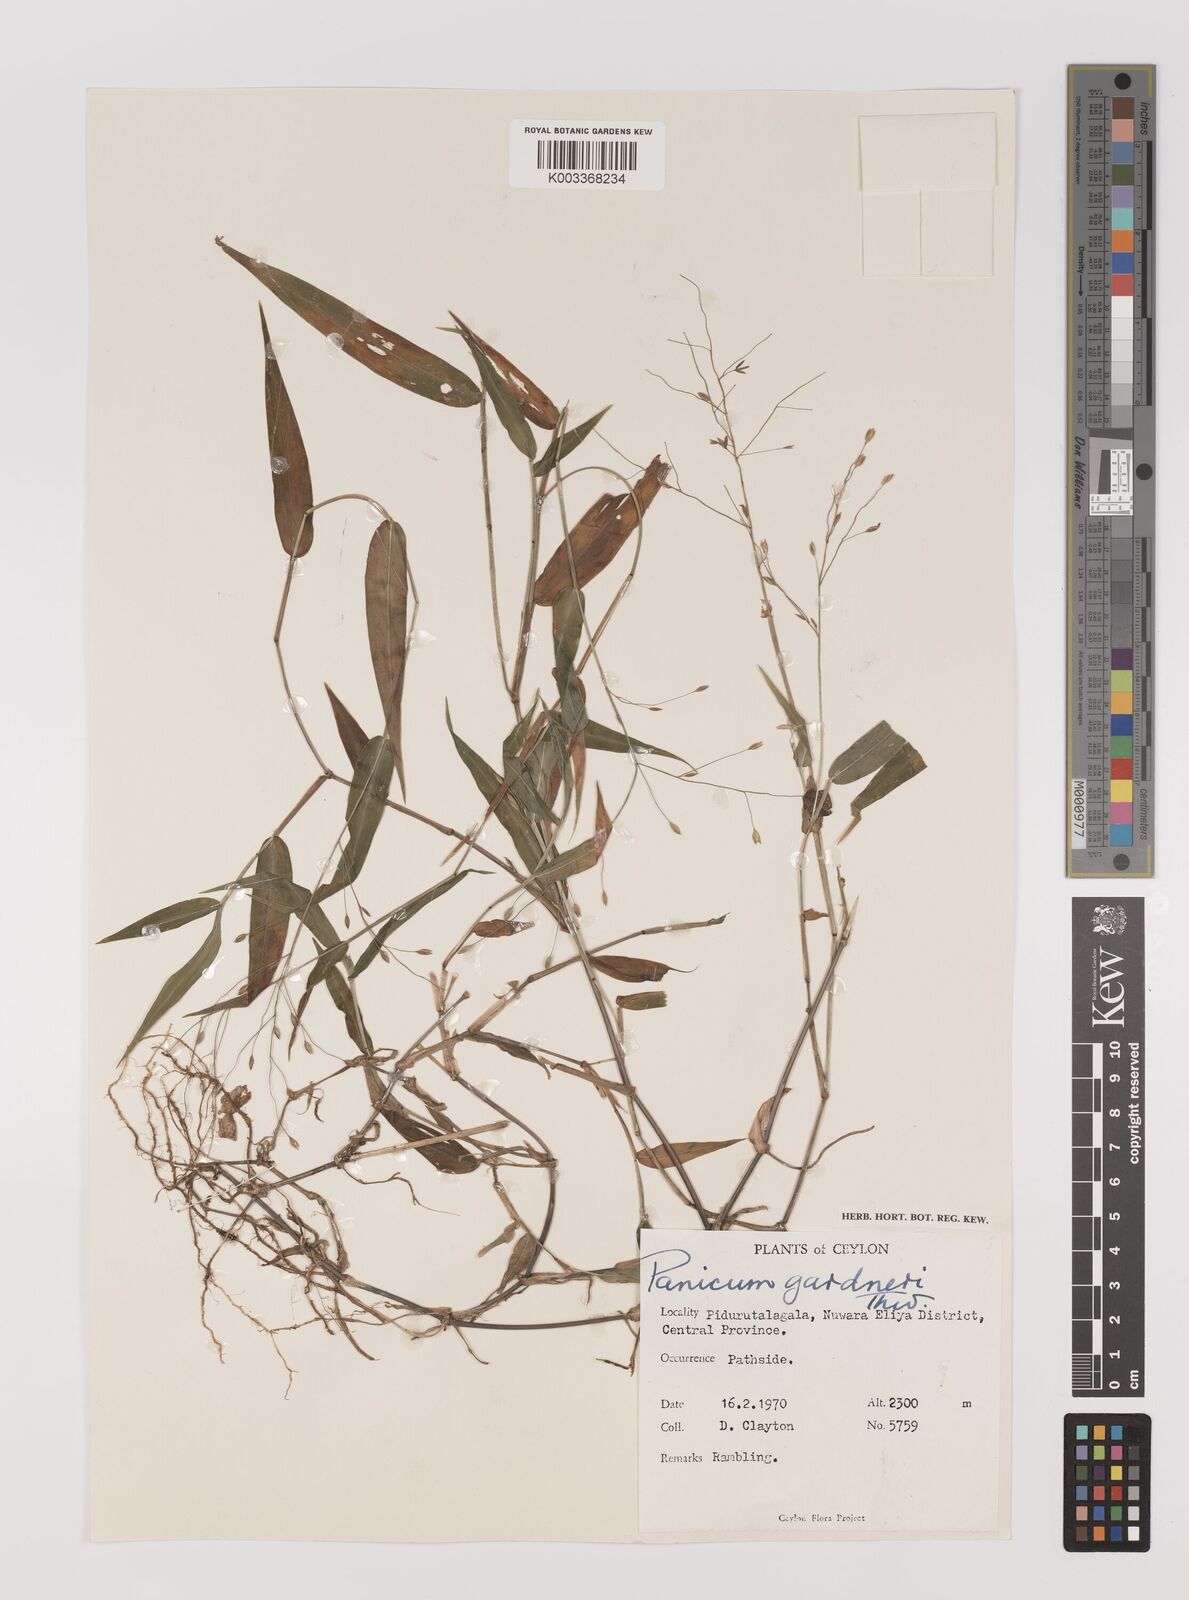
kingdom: Plantae
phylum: Tracheophyta
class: Liliopsida
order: Poales
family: Poaceae
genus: Panicum
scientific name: Panicum gardneri
